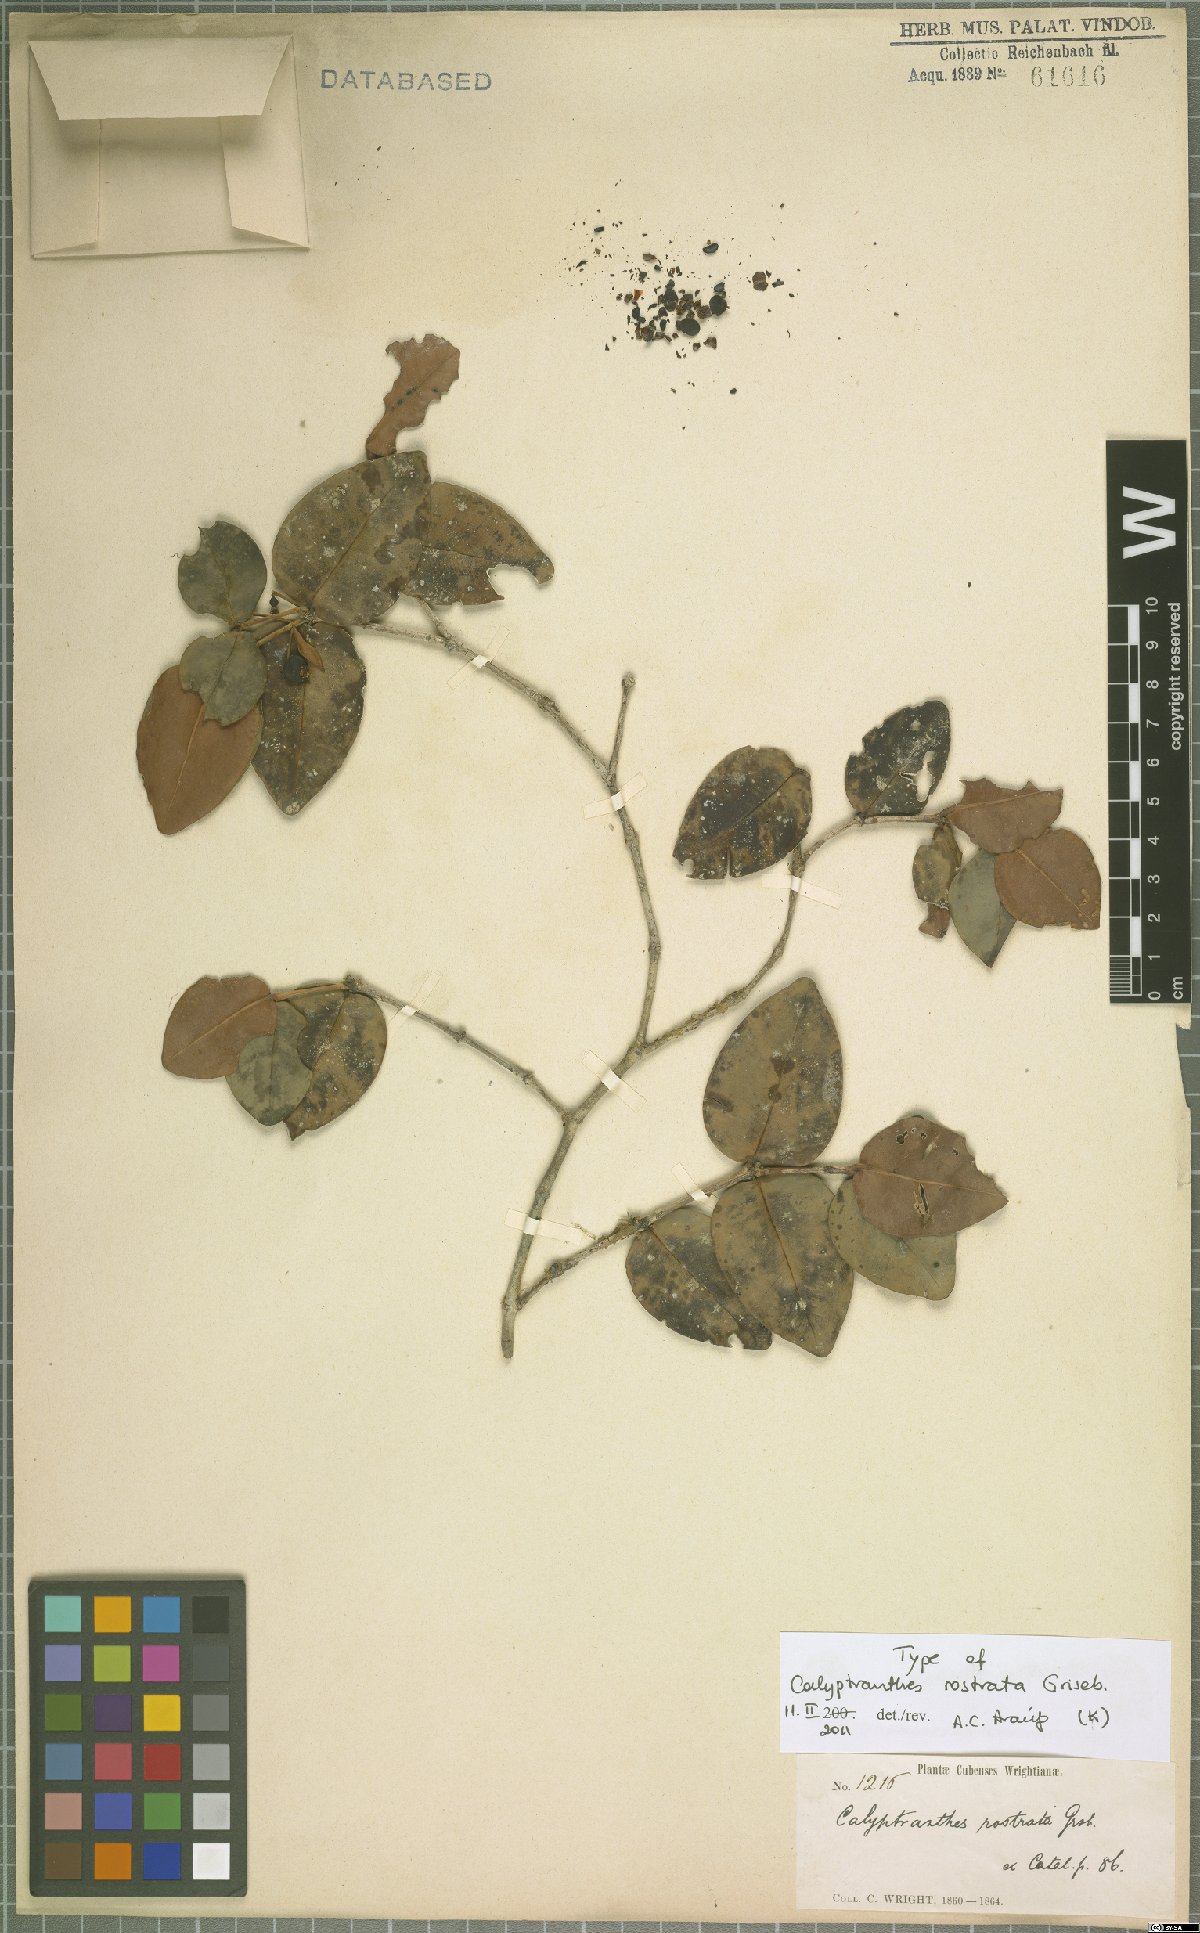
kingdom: Plantae
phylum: Tracheophyta
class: Magnoliopsida
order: Myrtales
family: Myrtaceae
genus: Myrcia
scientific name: Myrcia adunca
